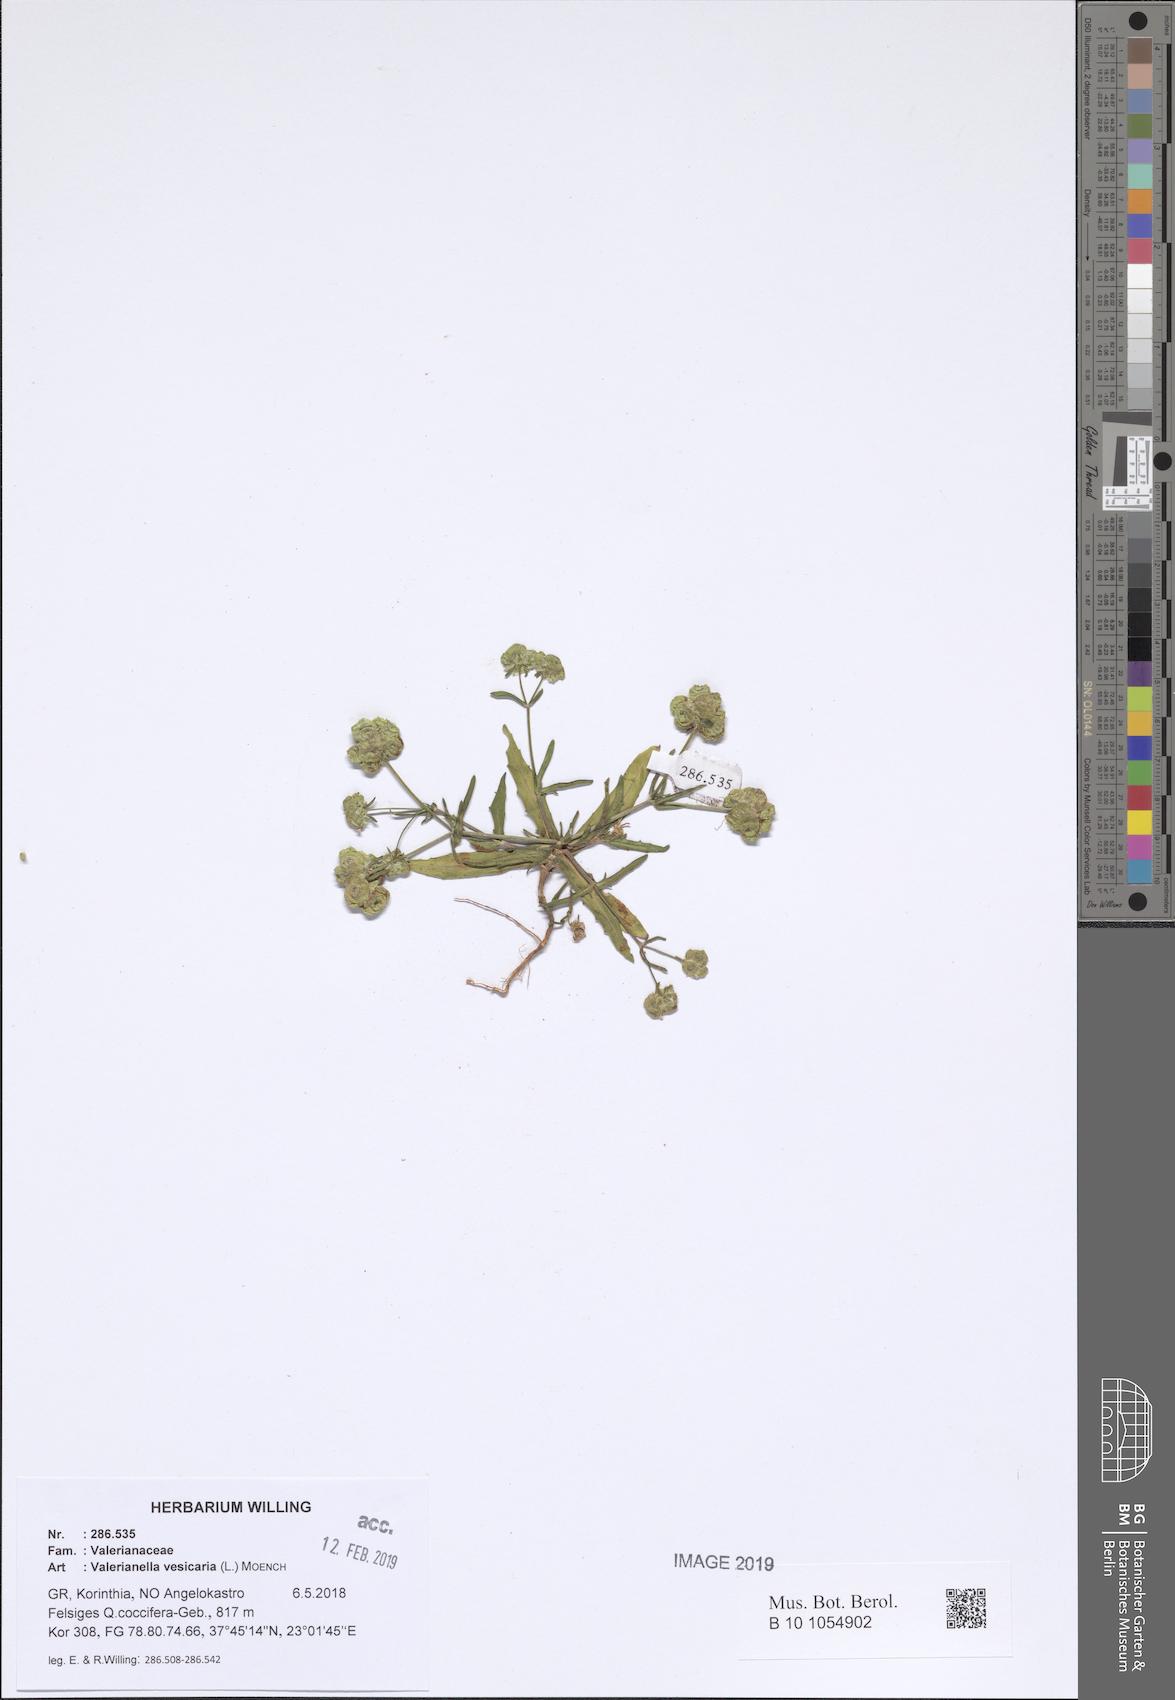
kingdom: Plantae
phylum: Tracheophyta
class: Magnoliopsida
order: Dipsacales
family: Caprifoliaceae
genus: Valerianella
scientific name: Valerianella vesicaria
